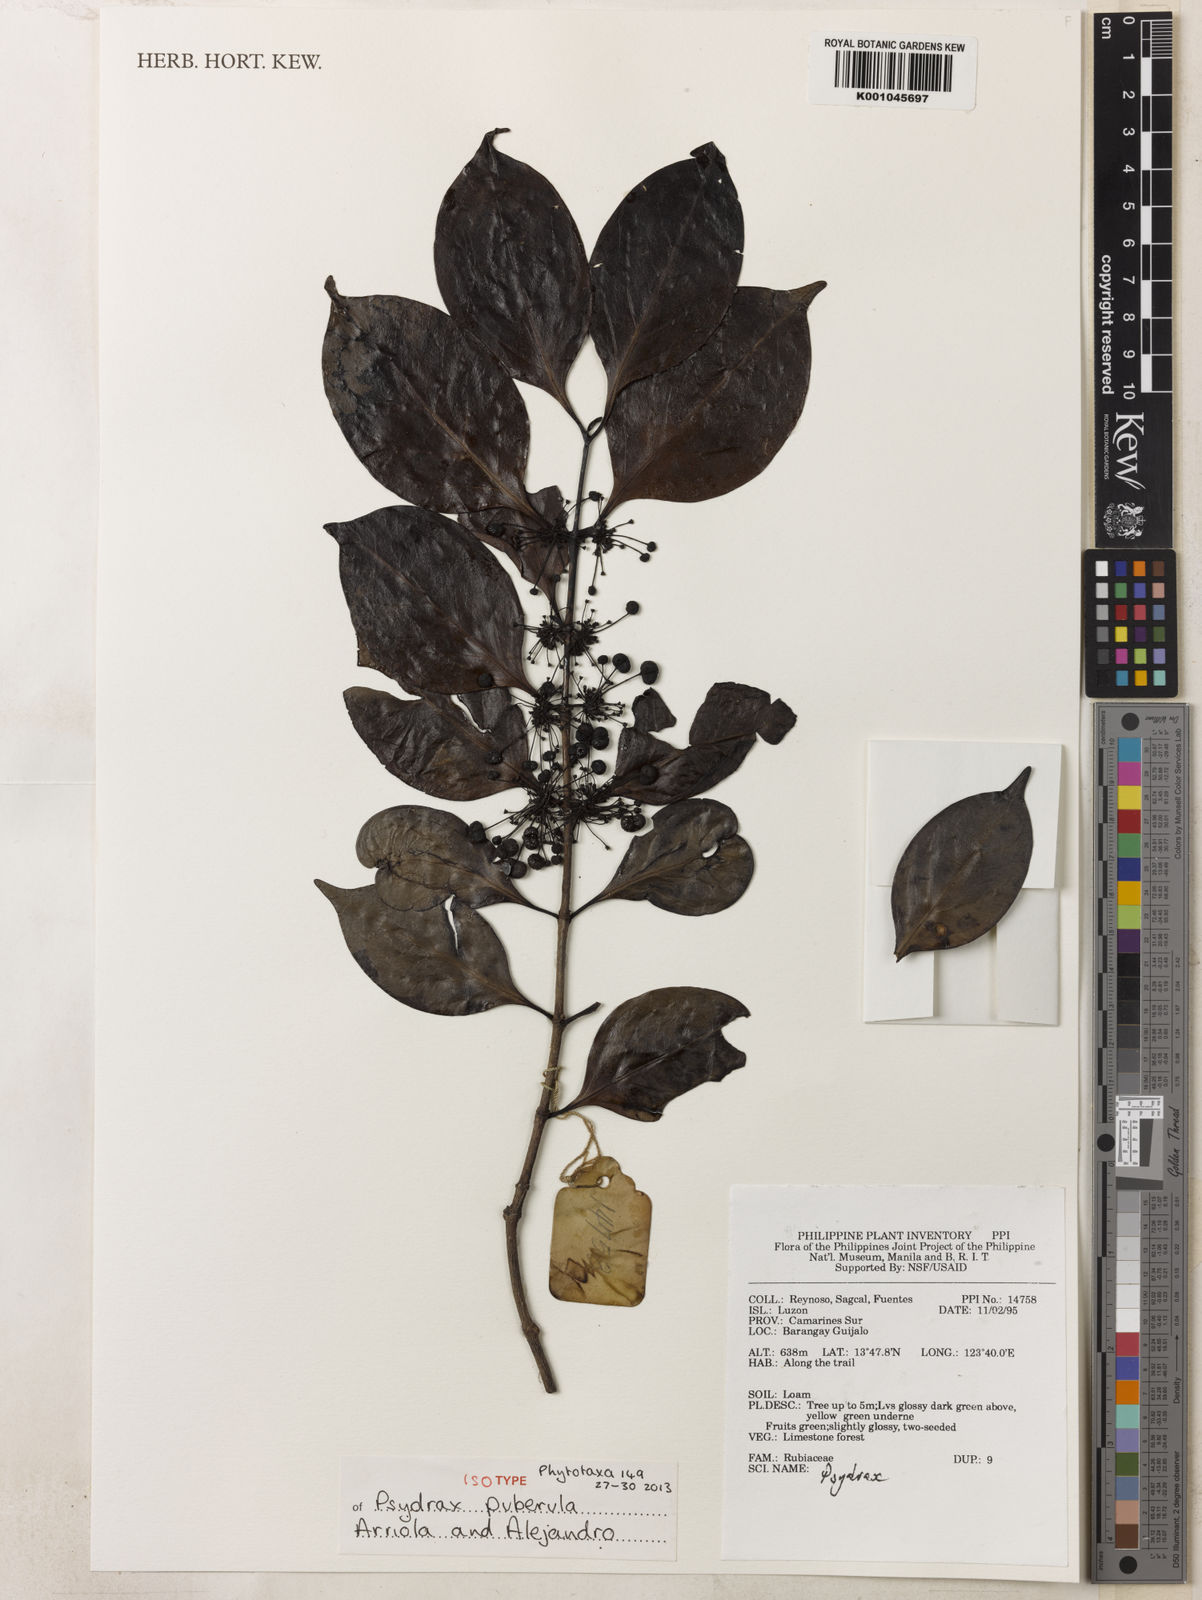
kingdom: Plantae
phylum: Tracheophyta
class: Magnoliopsida
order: Gentianales
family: Rubiaceae
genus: Psydrax
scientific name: Psydrax puberulus
